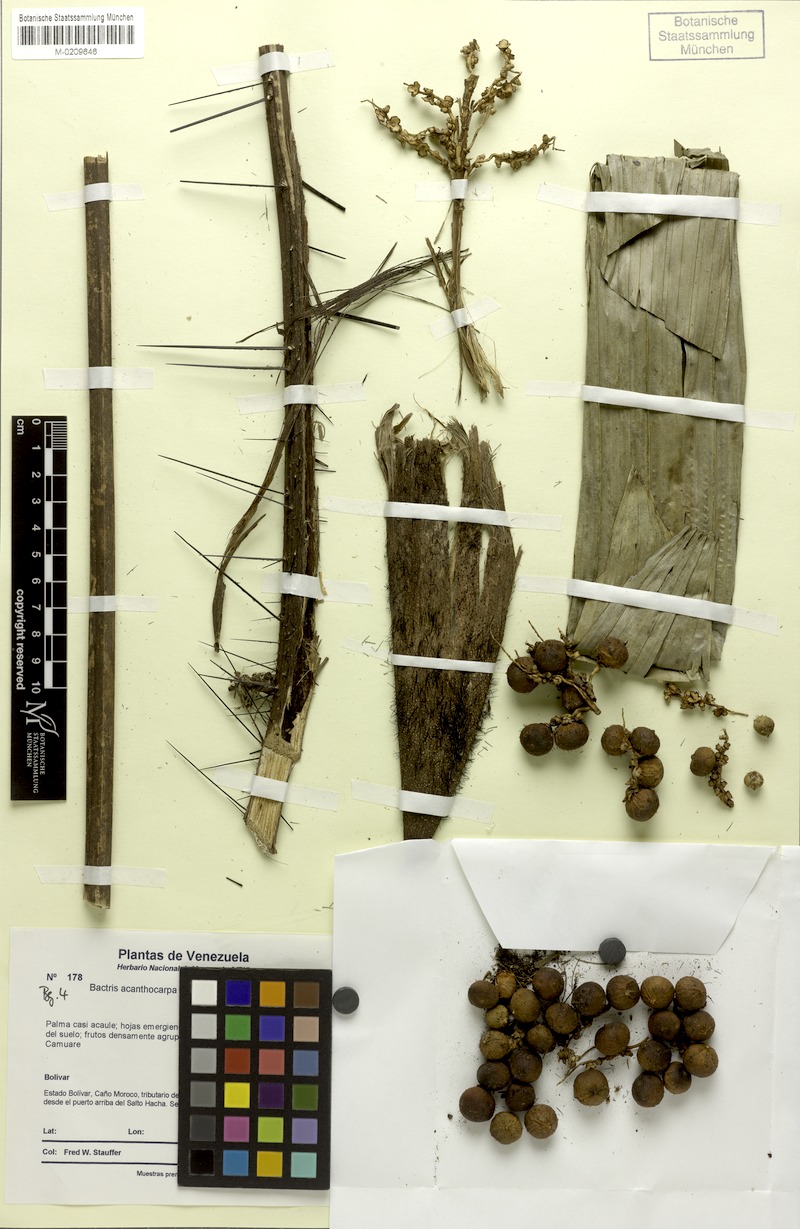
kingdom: Plantae
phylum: Tracheophyta
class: Liliopsida
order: Arecales
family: Arecaceae
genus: Bactris
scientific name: Bactris acanthocarpa
